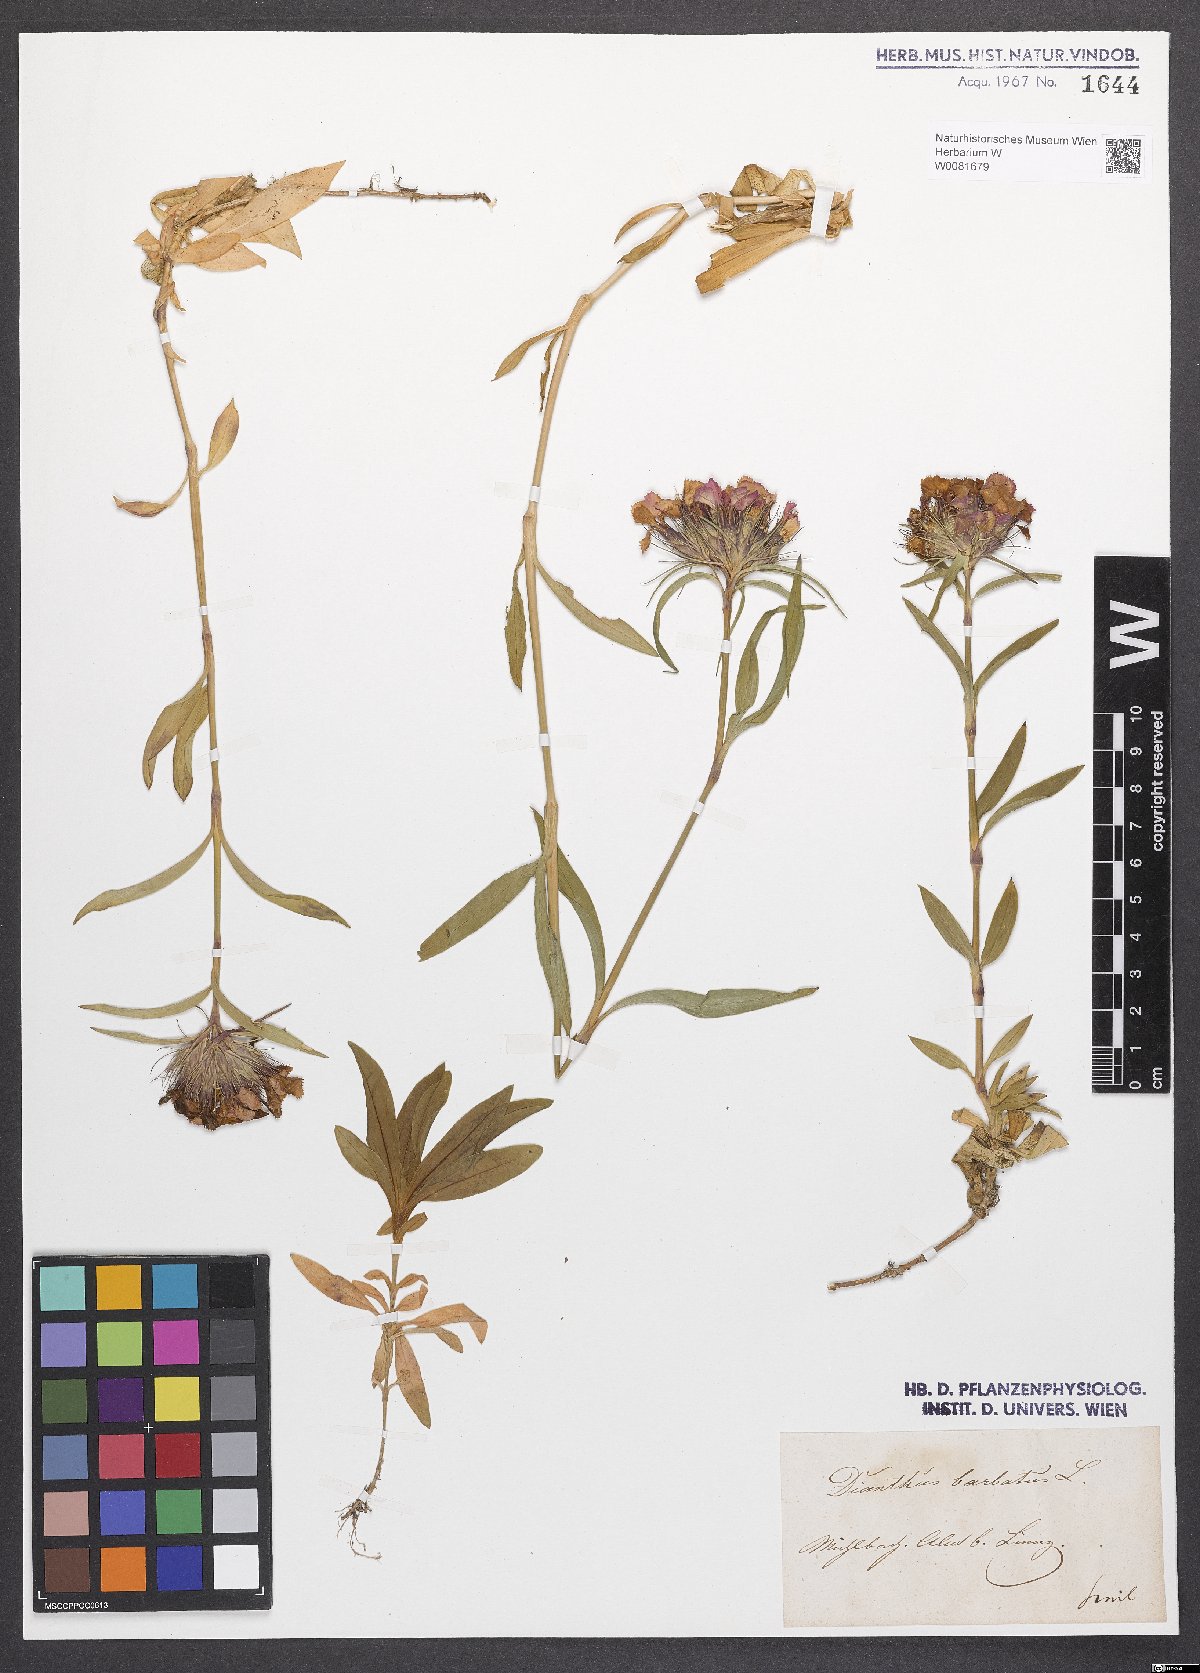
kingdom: Plantae
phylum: Tracheophyta
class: Magnoliopsida
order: Caryophyllales
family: Caryophyllaceae
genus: Dianthus
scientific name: Dianthus barbatus
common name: Sweet-william
